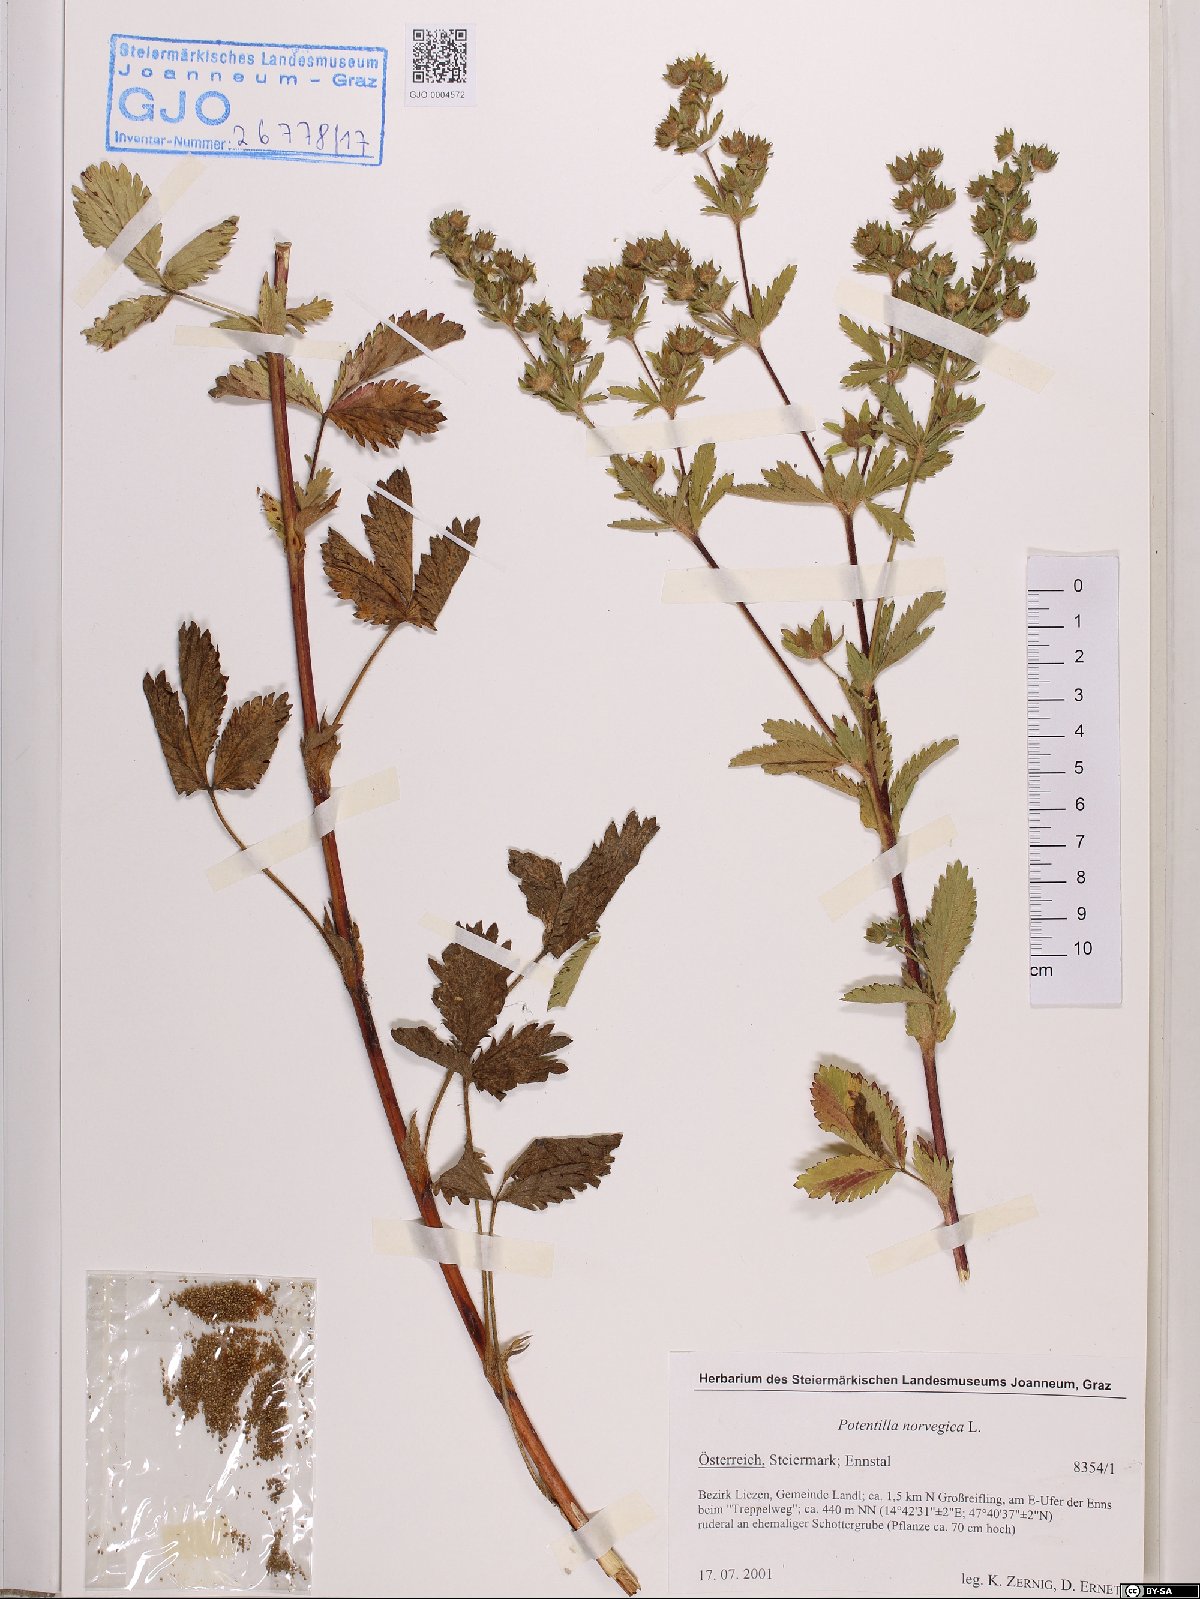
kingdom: Plantae
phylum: Tracheophyta
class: Magnoliopsida
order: Rosales
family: Rosaceae
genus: Potentilla
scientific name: Potentilla norvegica
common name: Ternate-leaved cinquefoil
